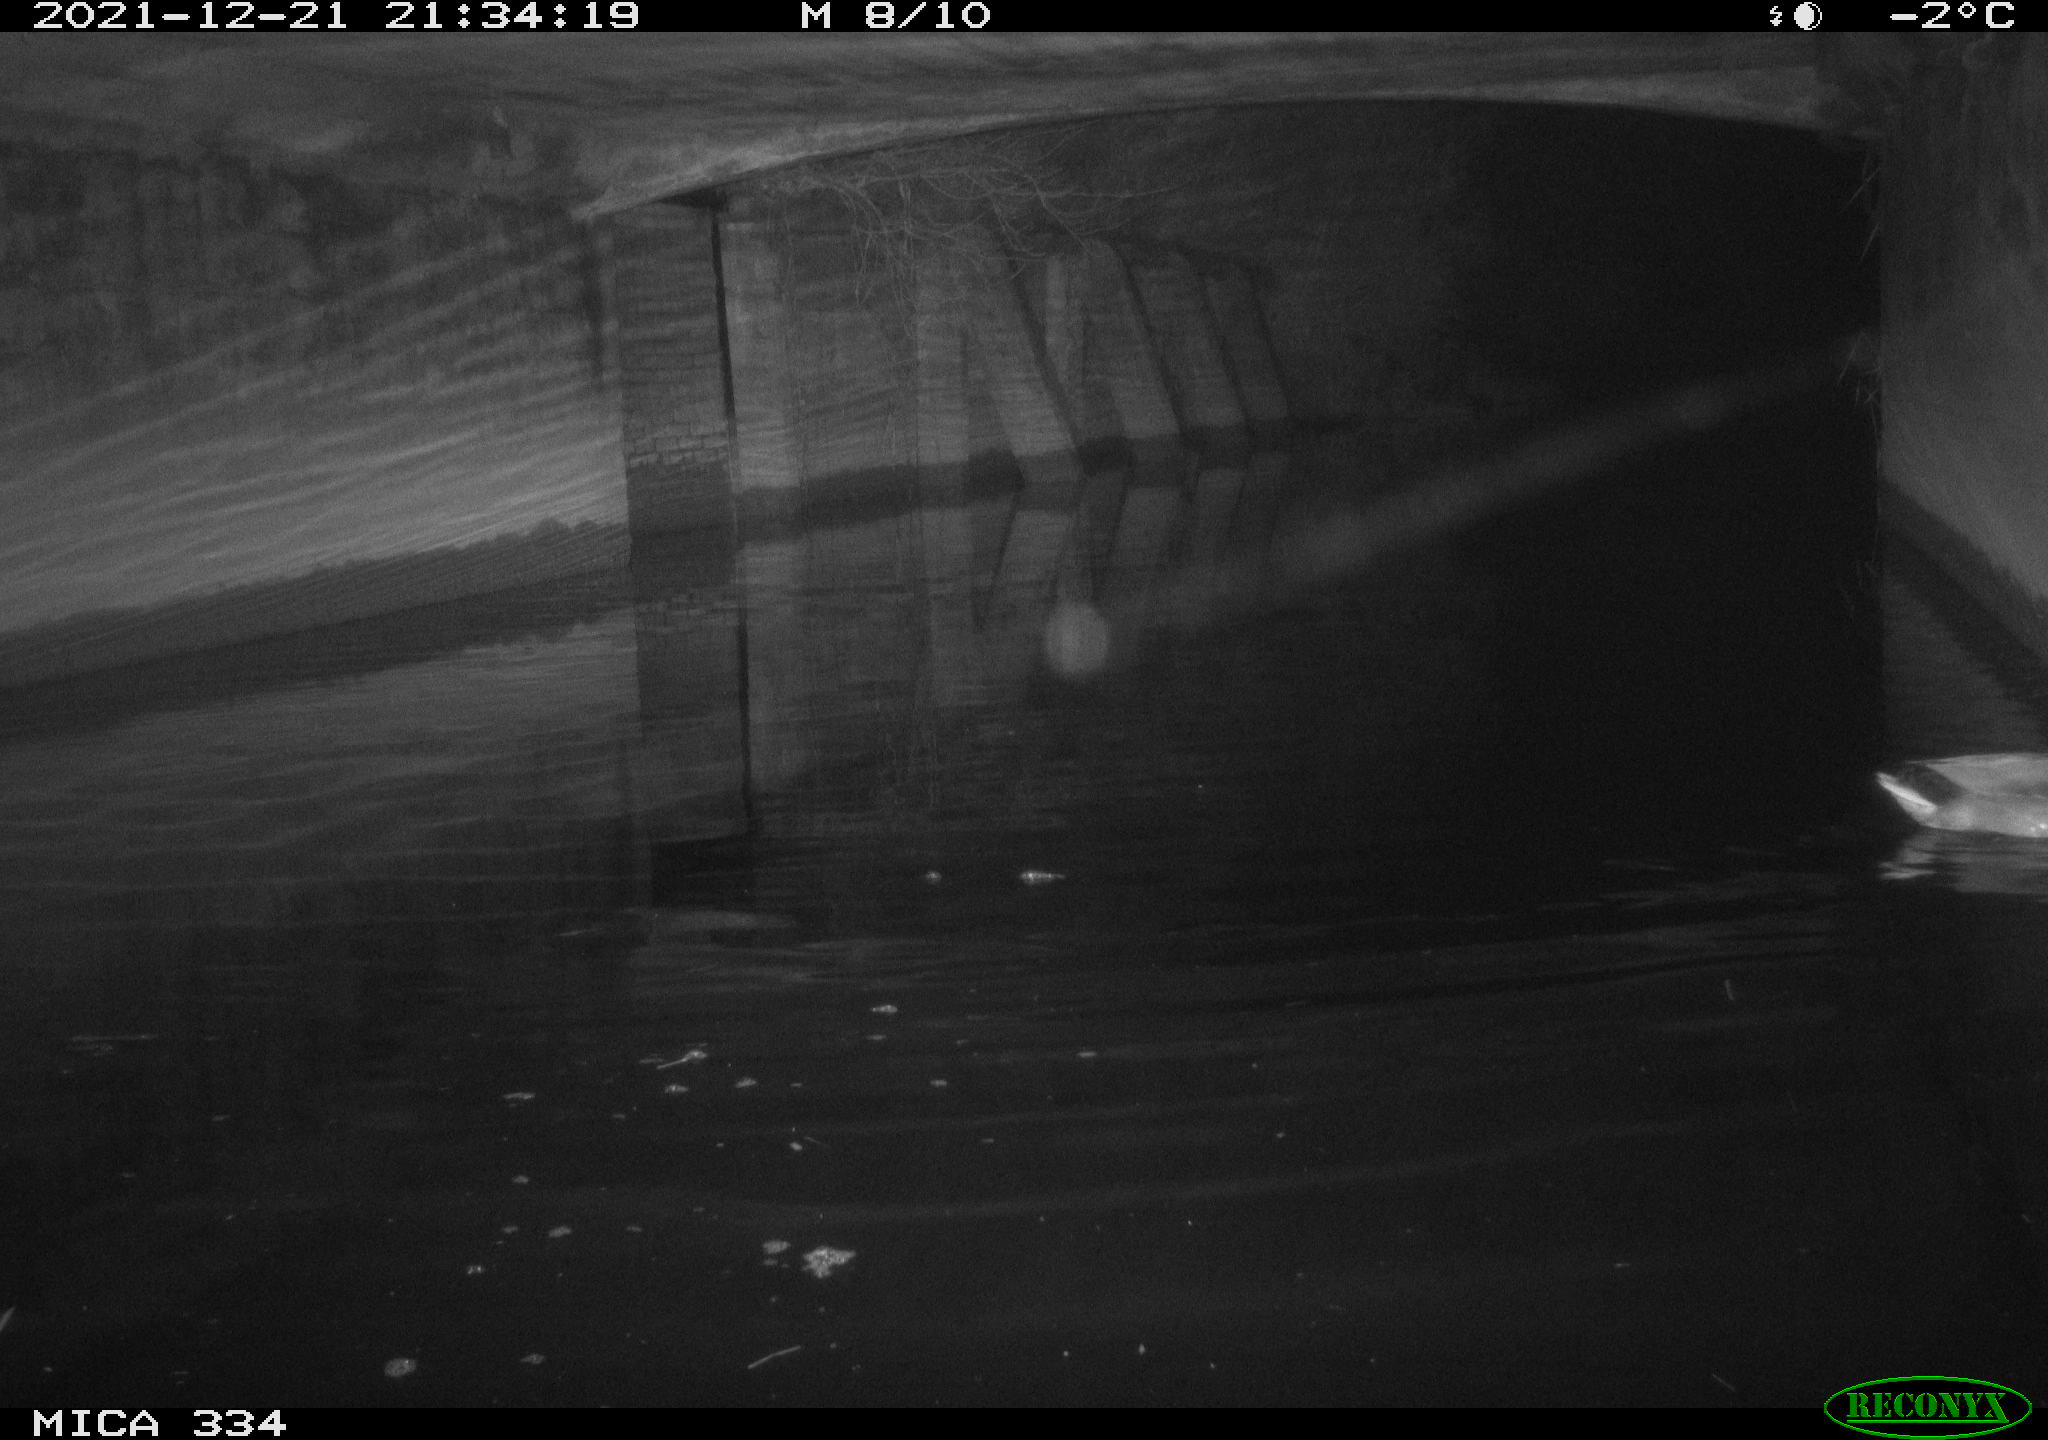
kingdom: Animalia
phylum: Chordata
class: Aves
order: Anseriformes
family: Anatidae
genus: Anas
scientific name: Anas platyrhynchos
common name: Mallard
